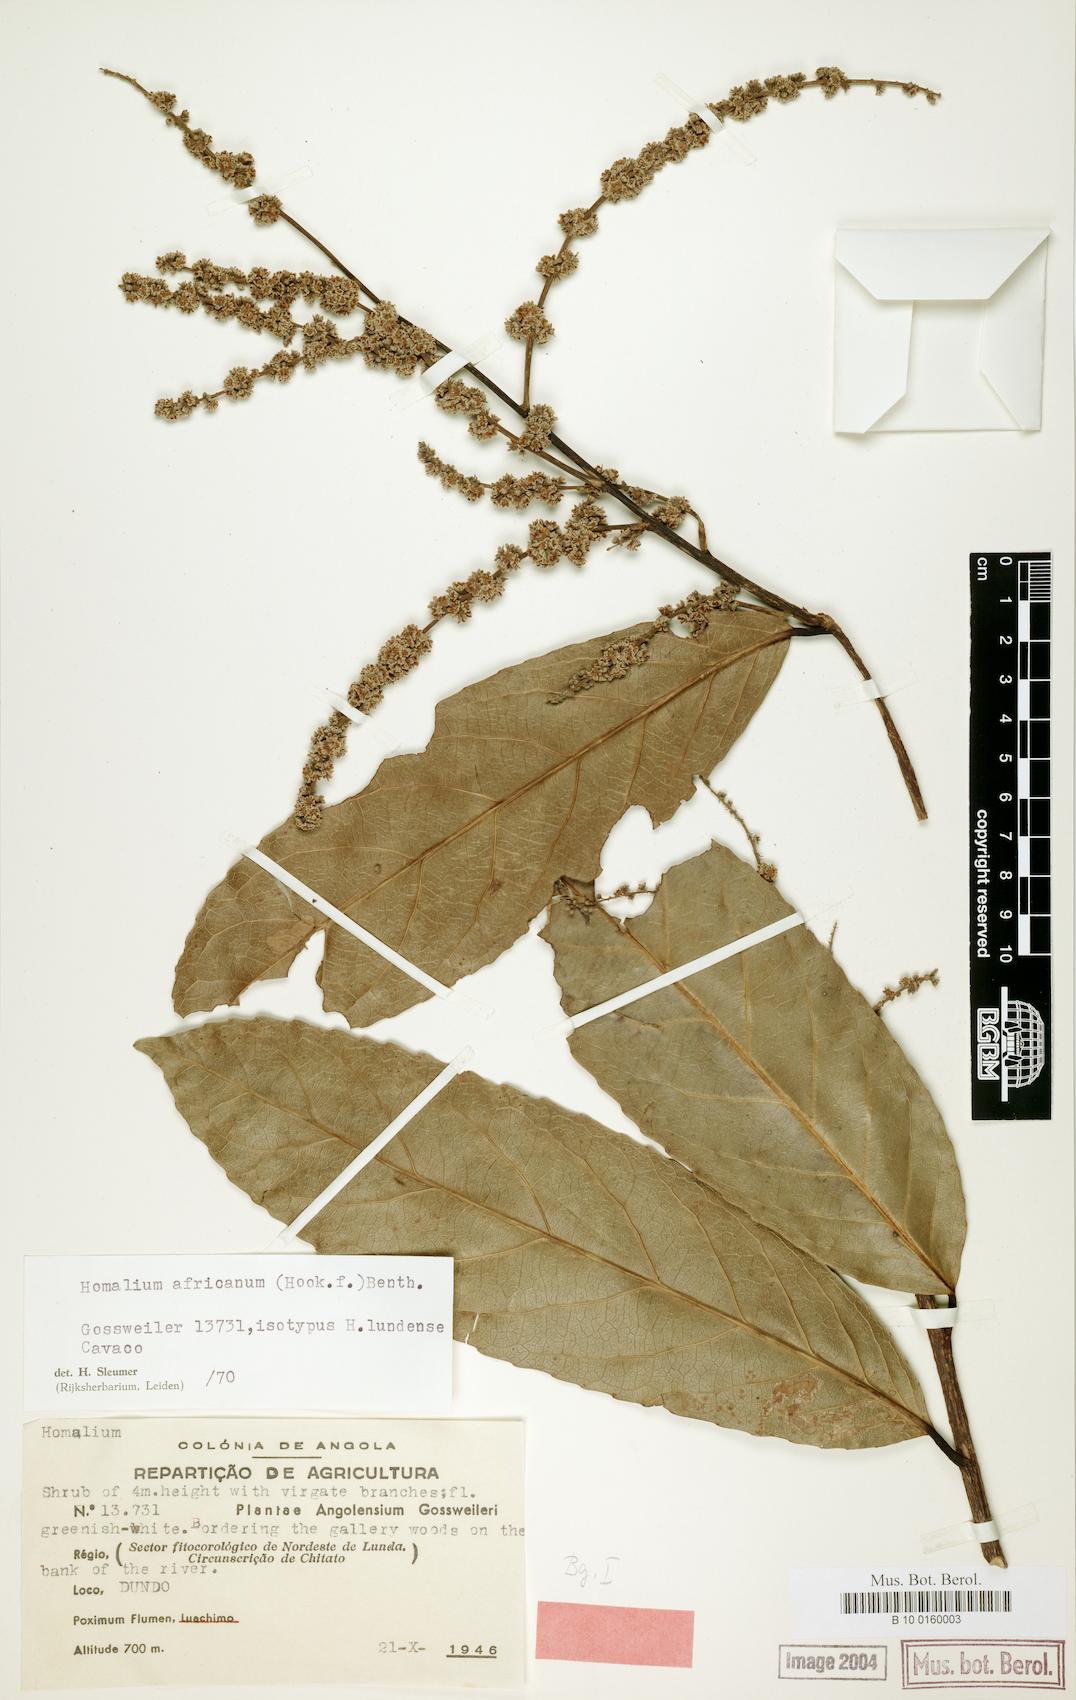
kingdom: Plantae
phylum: Tracheophyta
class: Magnoliopsida
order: Malpighiales
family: Salicaceae
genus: Homalium
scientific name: Homalium africanum
